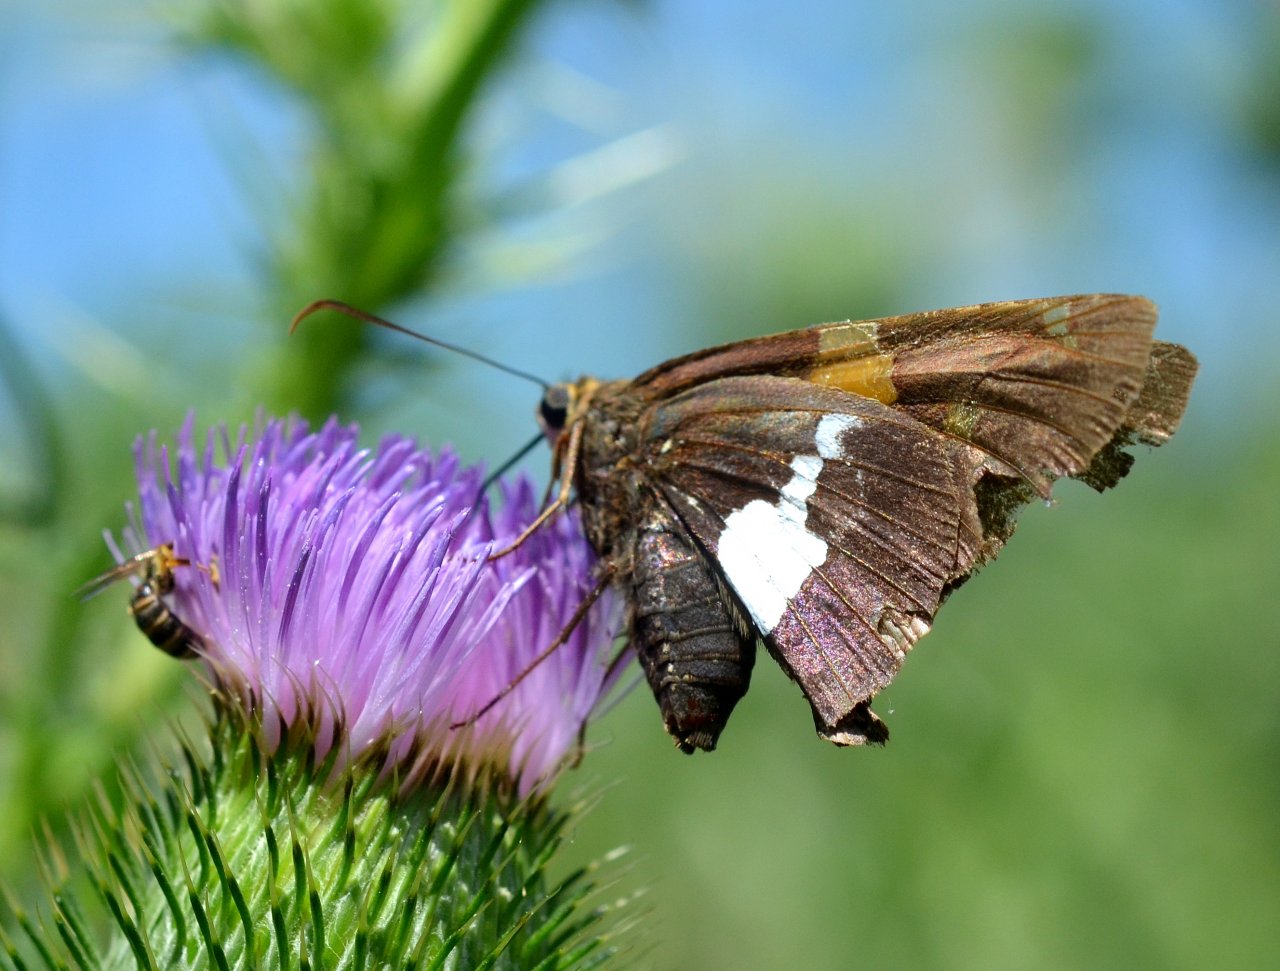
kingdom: Animalia
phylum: Arthropoda
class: Insecta
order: Lepidoptera
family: Hesperiidae
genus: Epargyreus
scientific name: Epargyreus clarus
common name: Silver-spotted Skipper
